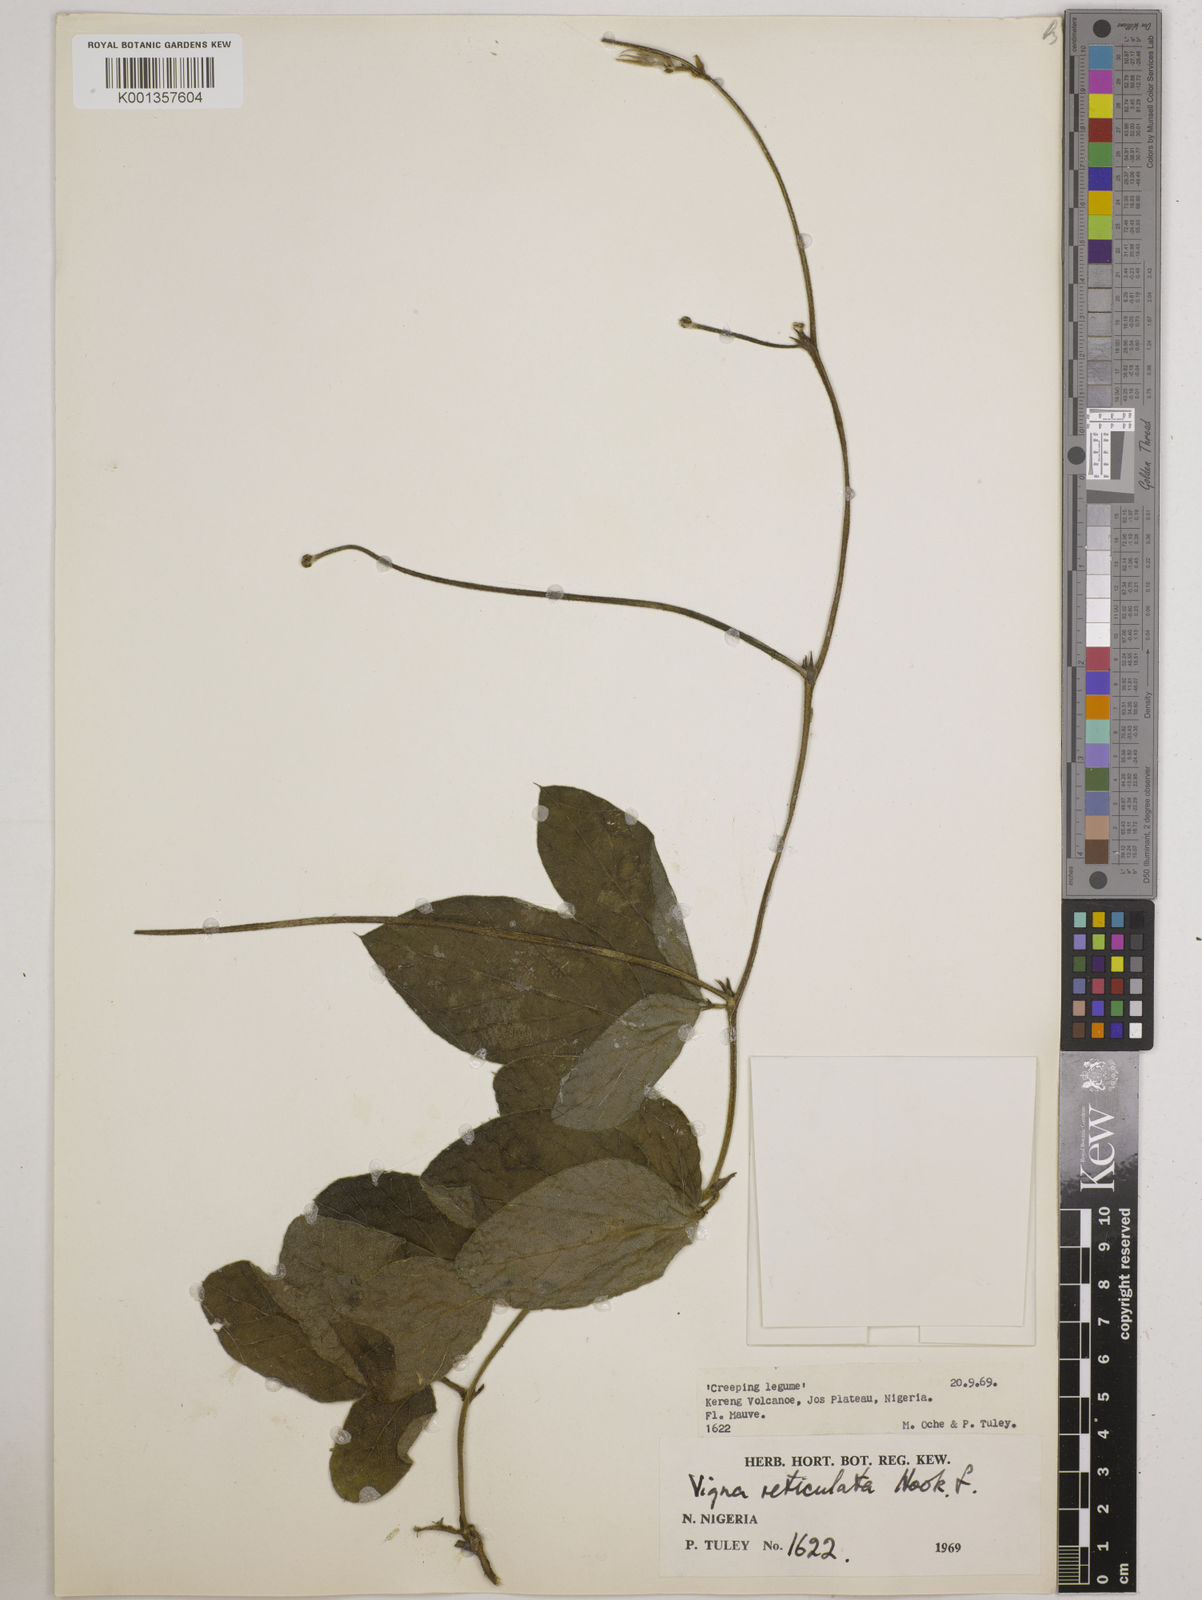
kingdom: Plantae
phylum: Tracheophyta
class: Magnoliopsida
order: Fabales
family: Fabaceae
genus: Vigna
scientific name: Vigna reticulata
